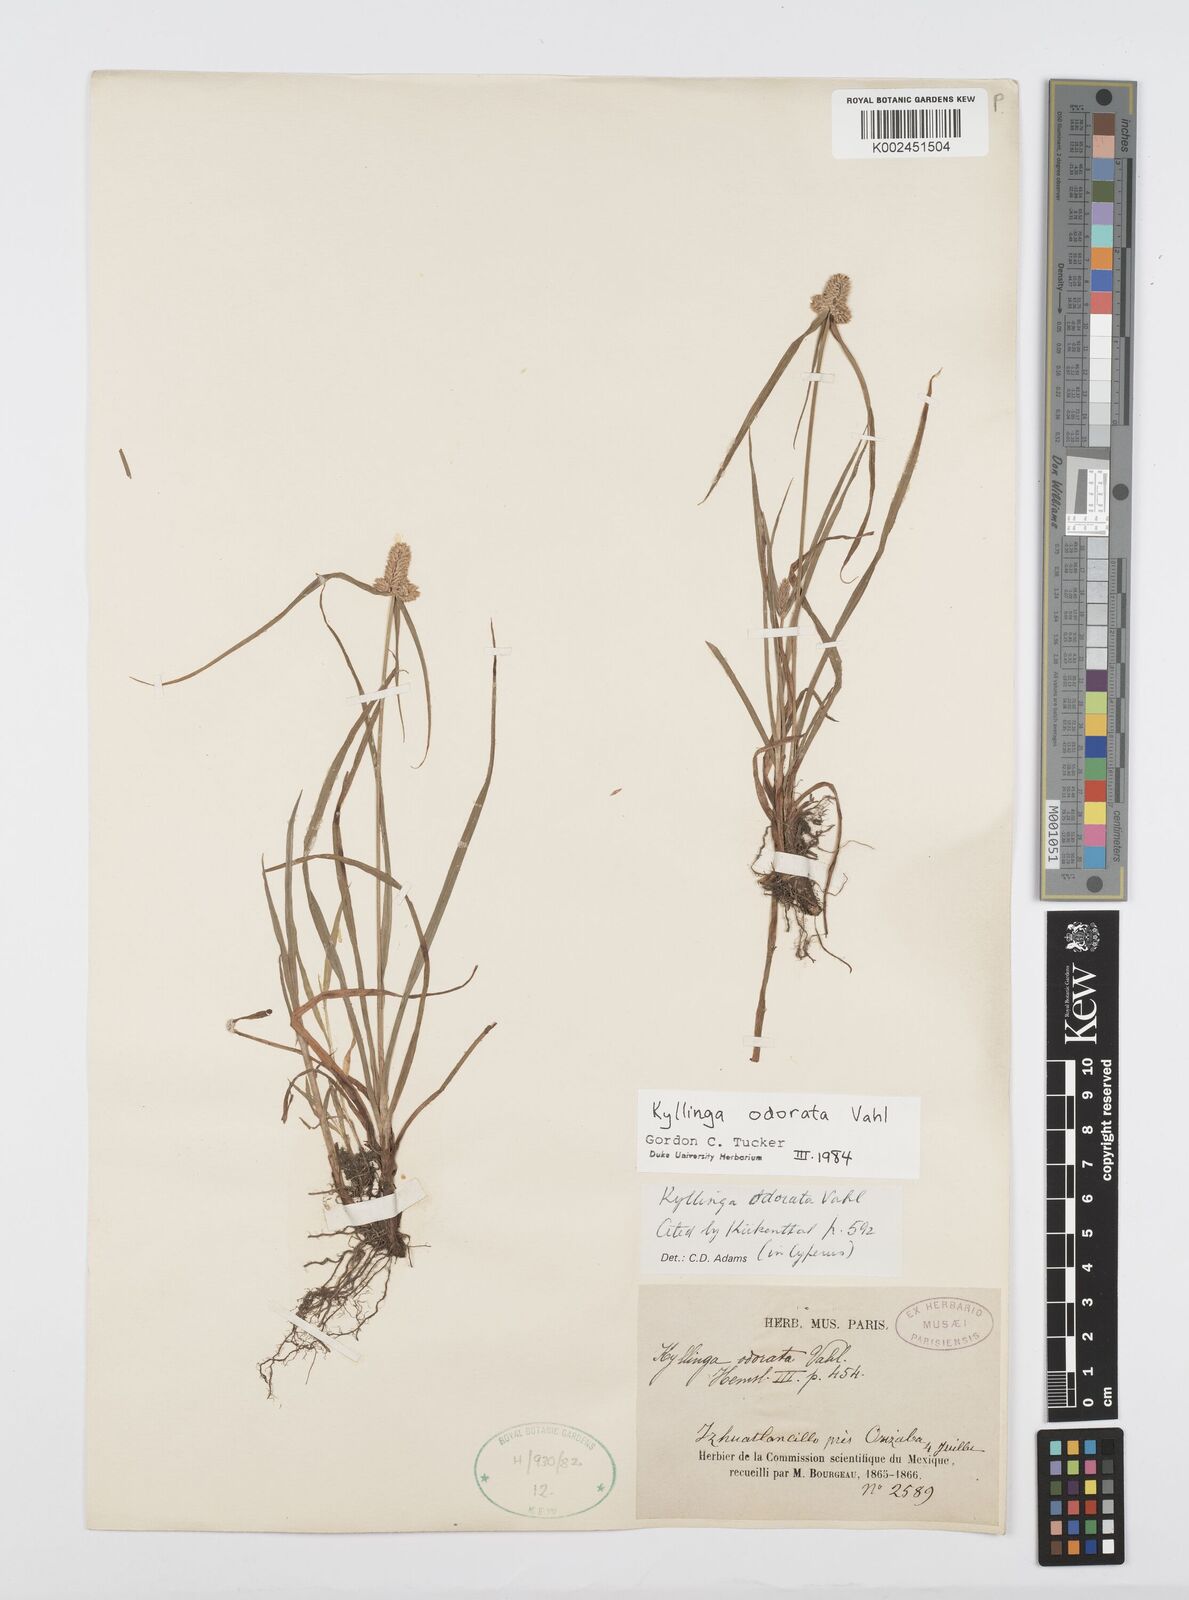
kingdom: Plantae
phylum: Tracheophyta
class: Liliopsida
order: Poales
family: Cyperaceae
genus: Cyperus
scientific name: Cyperus
